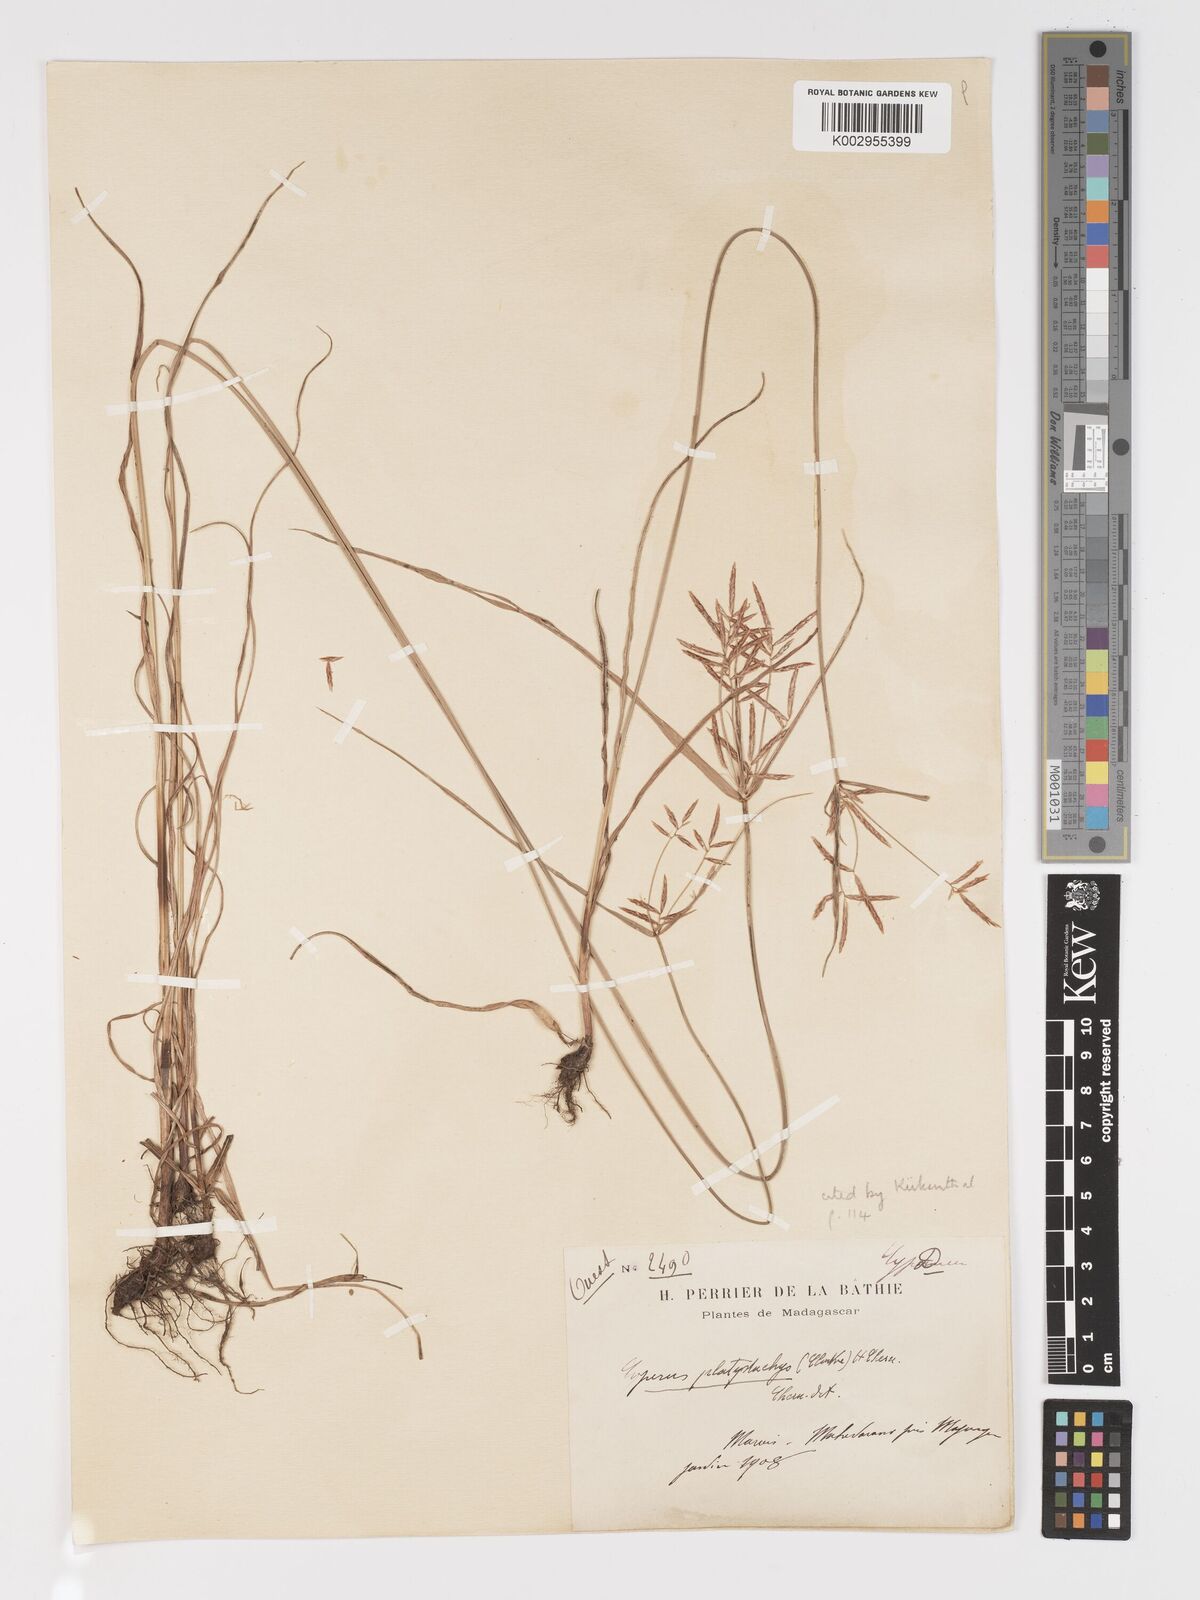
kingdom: Plantae
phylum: Tracheophyta
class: Liliopsida
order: Poales
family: Cyperaceae
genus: Cyperus
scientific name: Cyperus tuberosus
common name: Nut grass
